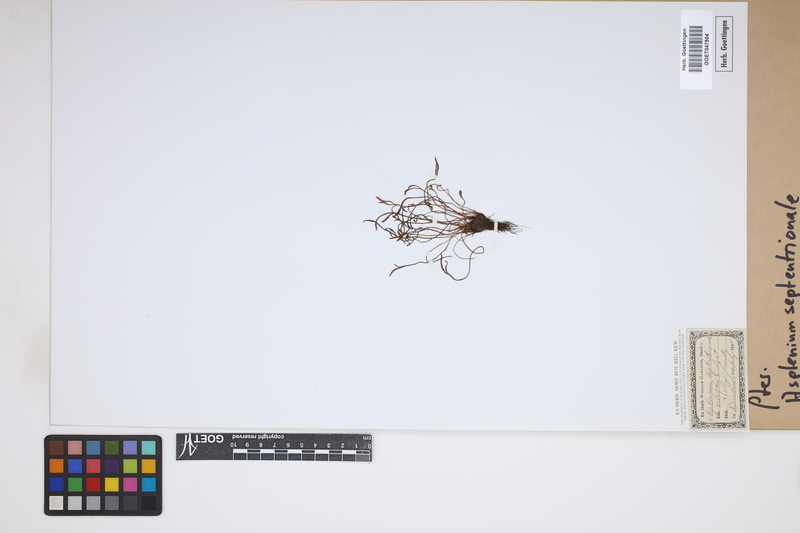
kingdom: Plantae
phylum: Tracheophyta
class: Polypodiopsida
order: Polypodiales
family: Aspleniaceae
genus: Asplenium
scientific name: Asplenium septentrionale
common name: Forked spleenwort
